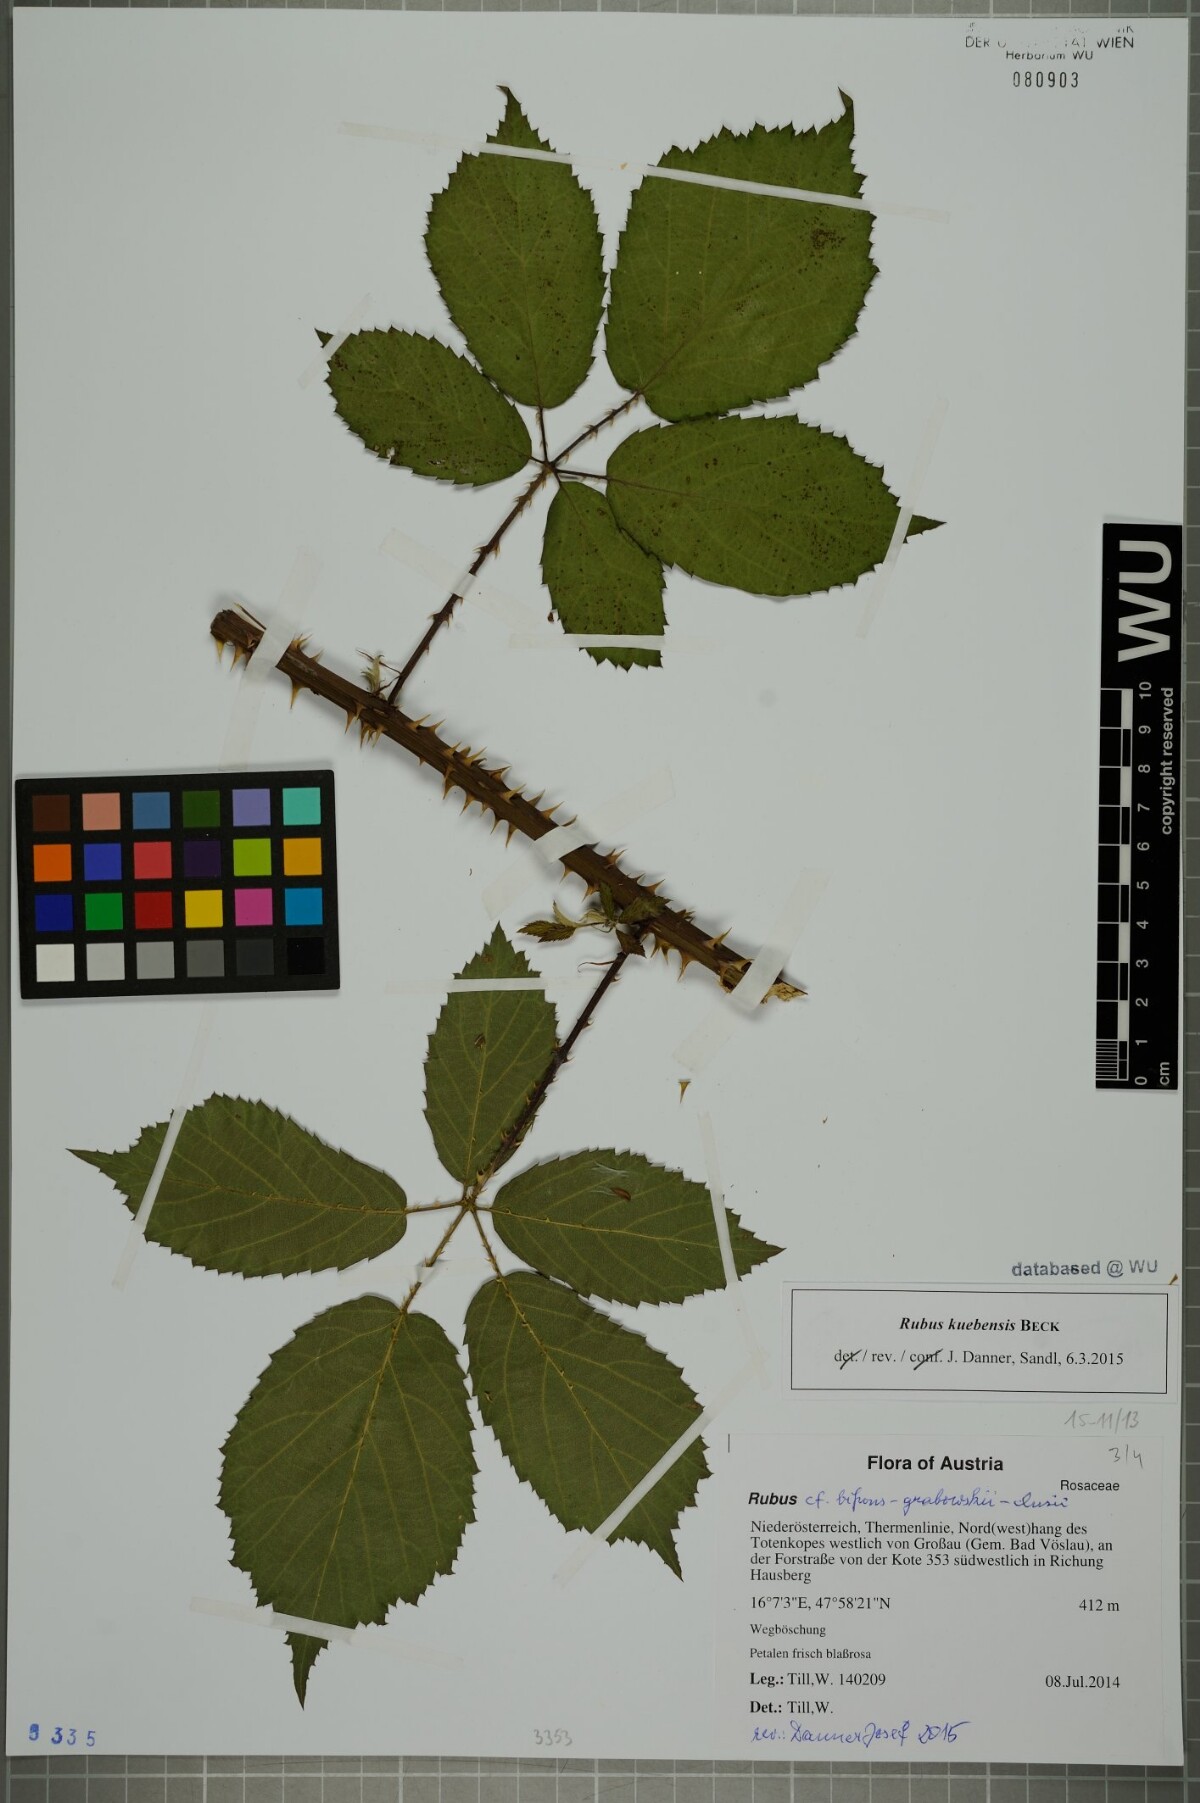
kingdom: Plantae
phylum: Tracheophyta
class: Magnoliopsida
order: Rosales
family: Rosaceae
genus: Rubus
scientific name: Rubus kuebensis
